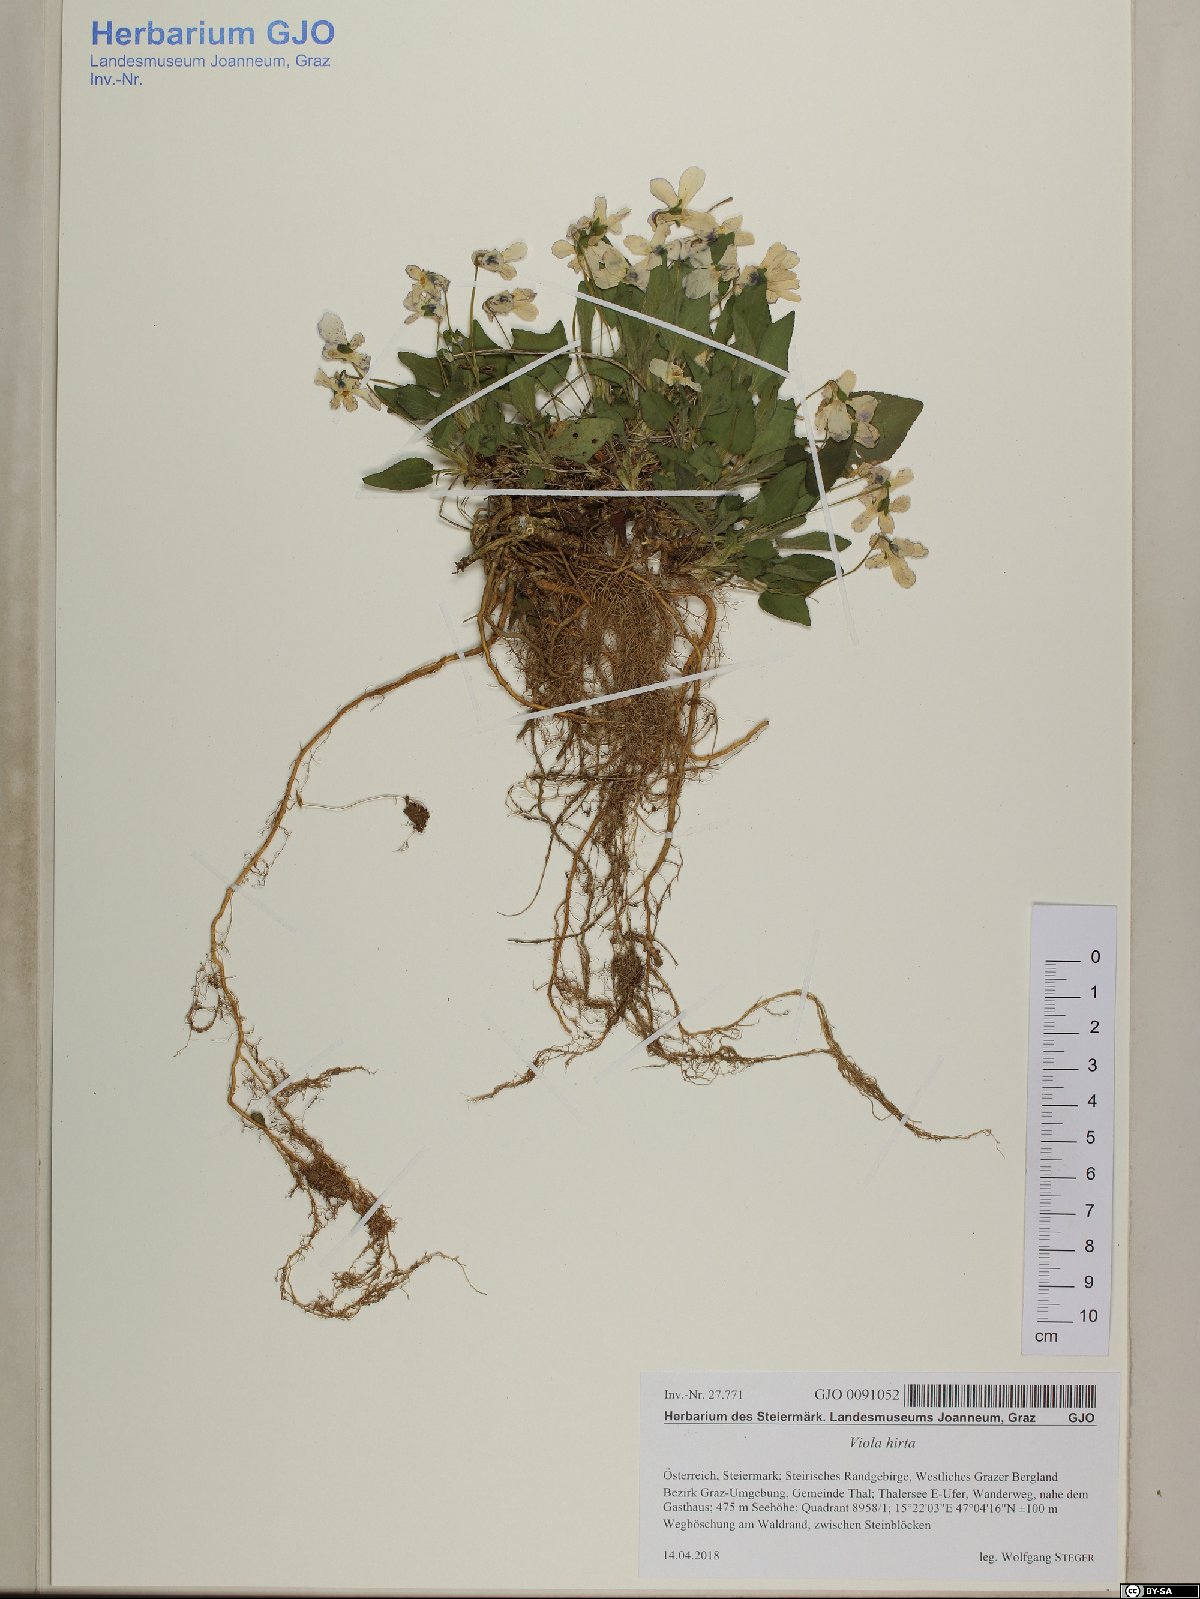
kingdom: Plantae
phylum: Tracheophyta
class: Magnoliopsida
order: Malpighiales
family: Violaceae
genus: Viola
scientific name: Viola hirta
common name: Hairy violet
